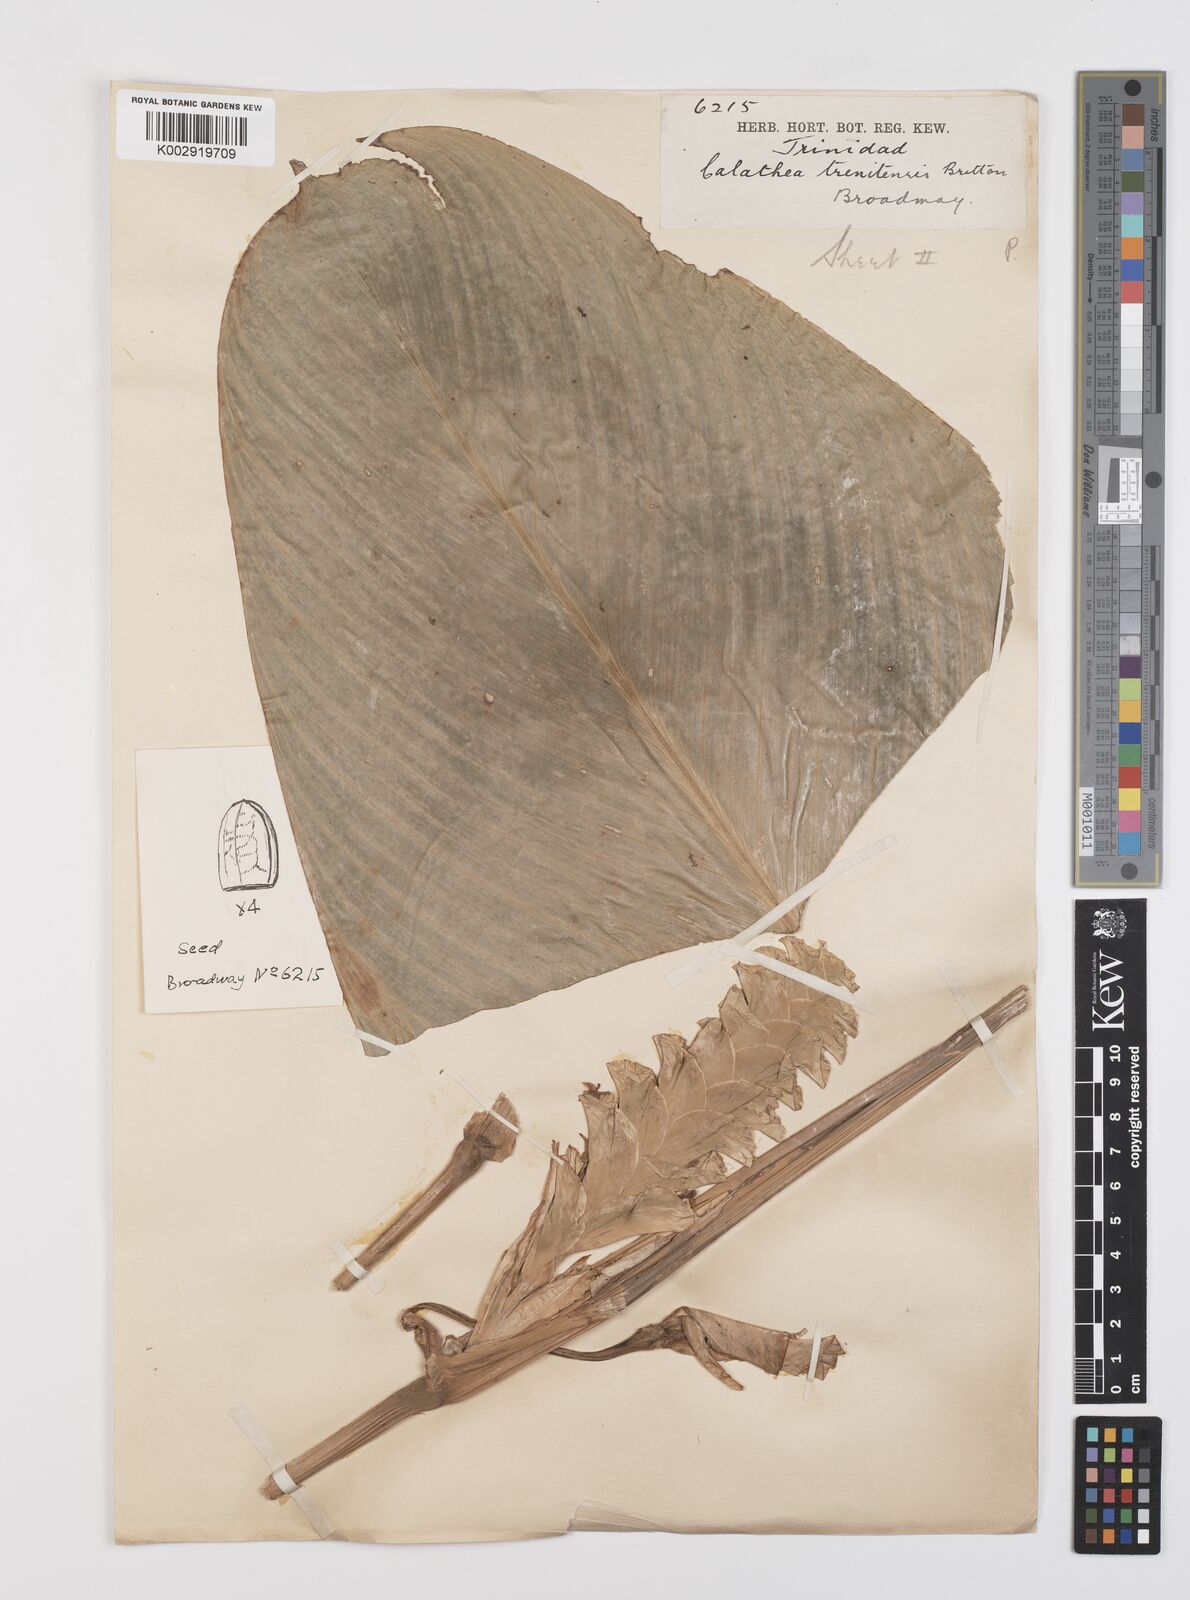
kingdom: Plantae
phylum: Tracheophyta
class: Liliopsida
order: Zingiberales
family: Marantaceae
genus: Calathea
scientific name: Calathea casupito
